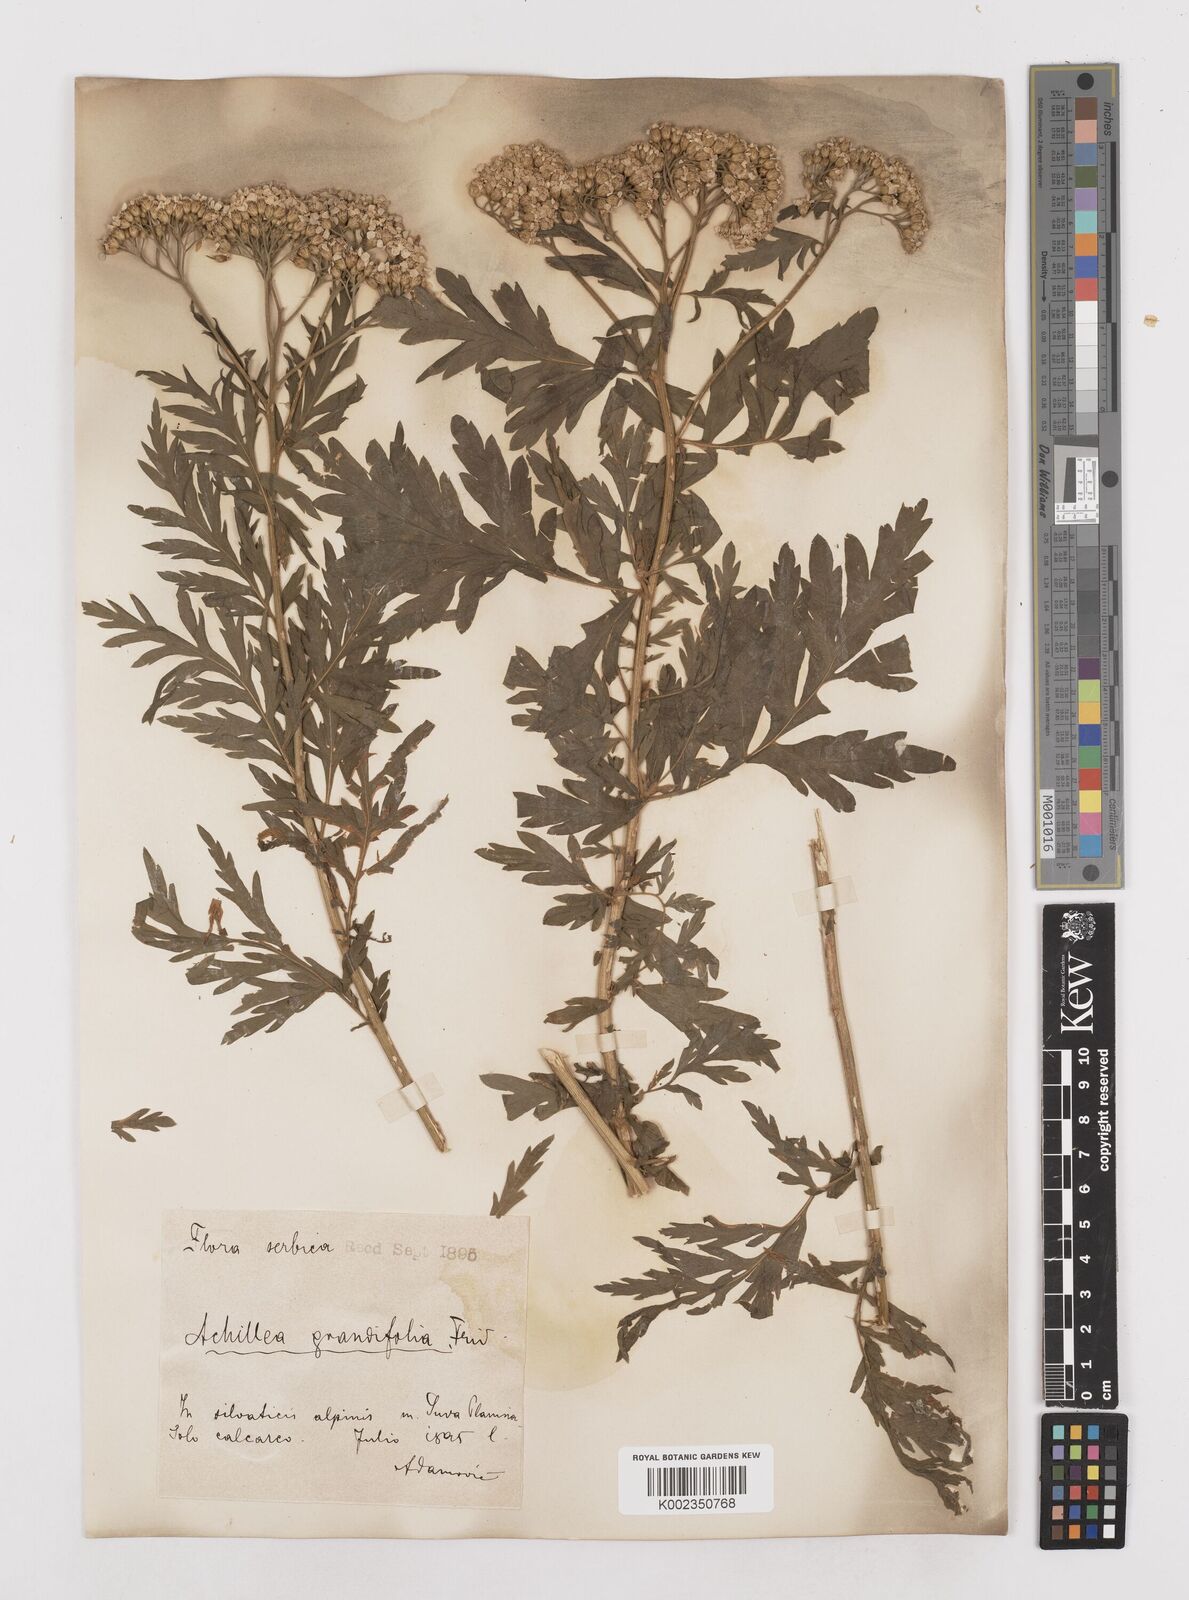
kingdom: Plantae
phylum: Tracheophyta
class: Magnoliopsida
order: Asterales
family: Asteraceae
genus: Achillea
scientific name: Achillea grandifolia
